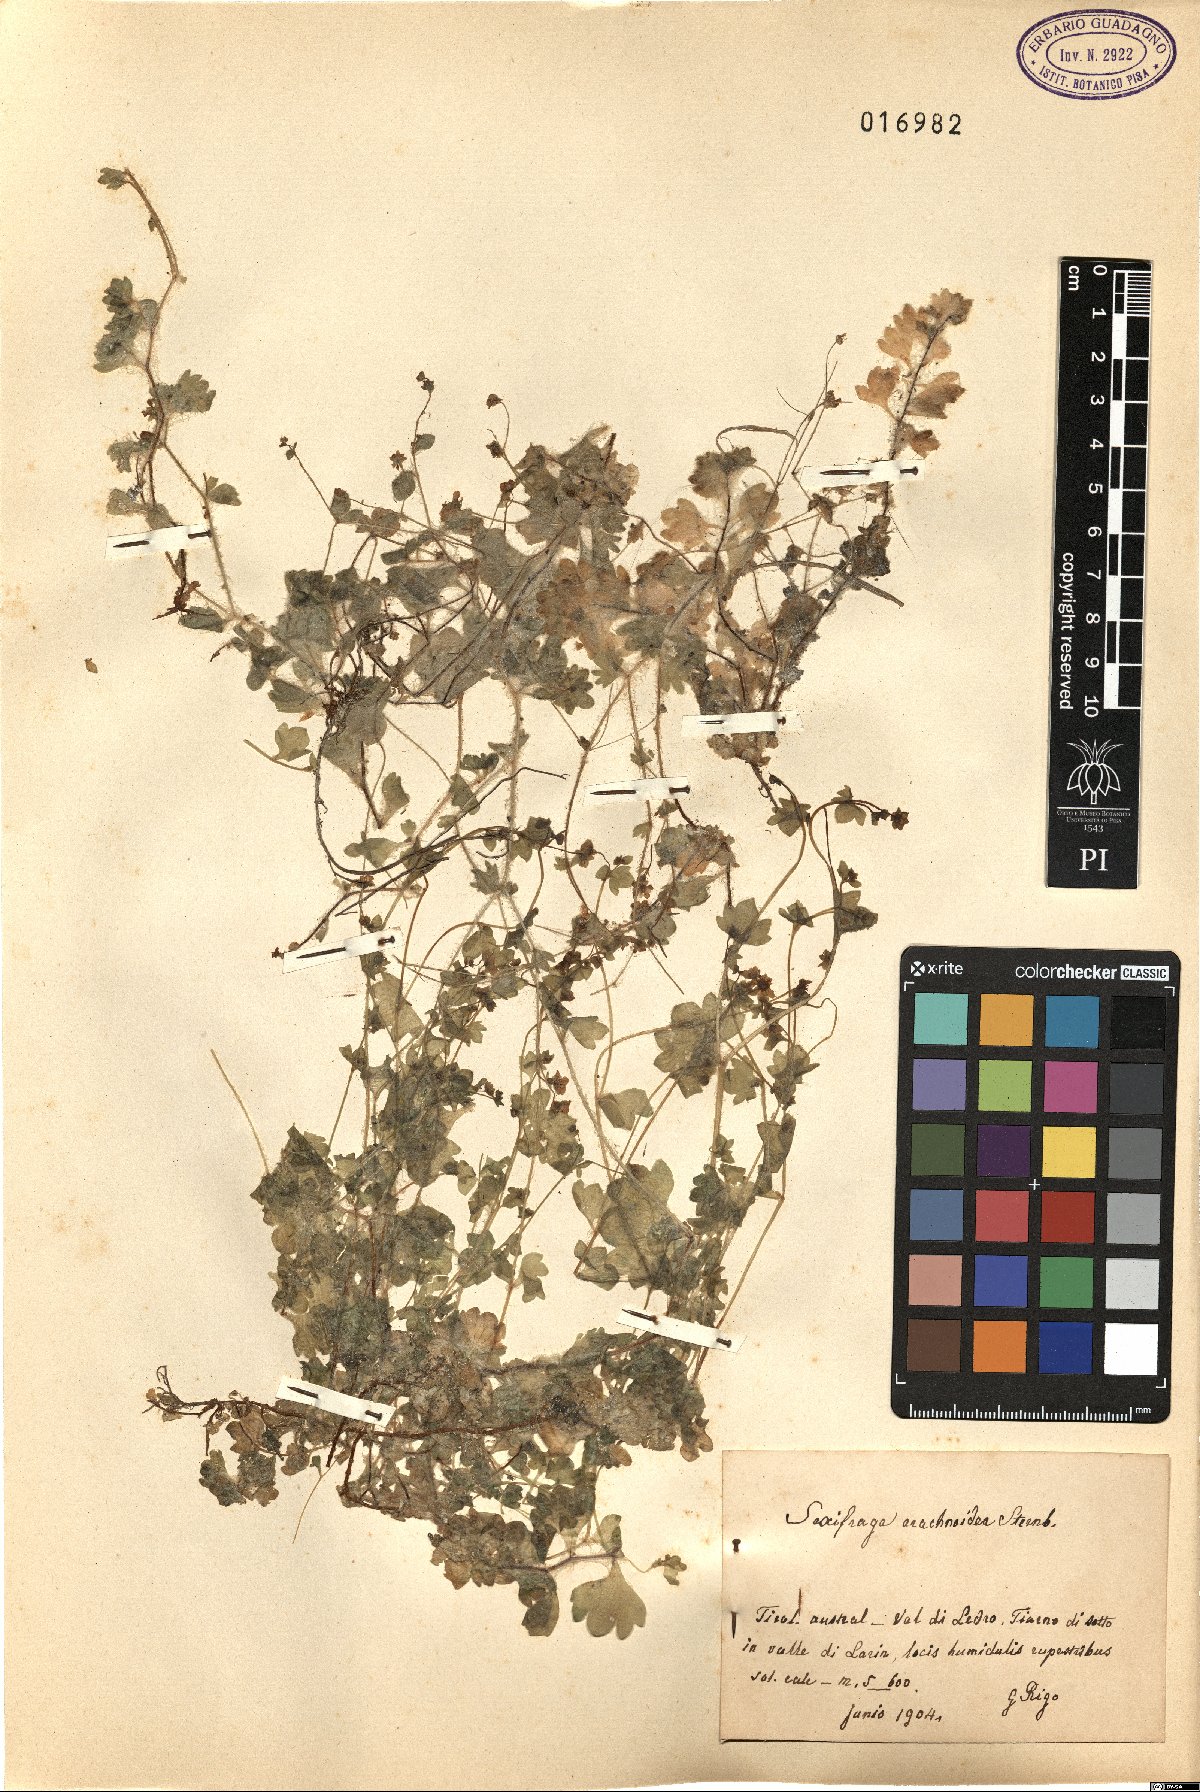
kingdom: Plantae
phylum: Tracheophyta
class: Magnoliopsida
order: Saxifragales
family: Saxifragaceae
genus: Saxifraga
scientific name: Saxifraga arachnoidea
